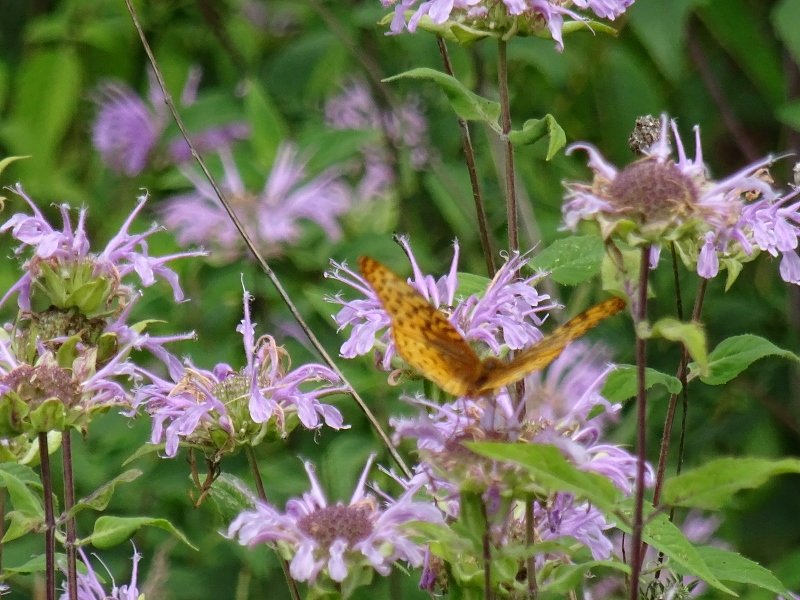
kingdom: Animalia
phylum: Arthropoda
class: Insecta
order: Lepidoptera
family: Nymphalidae
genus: Speyeria
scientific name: Speyeria
